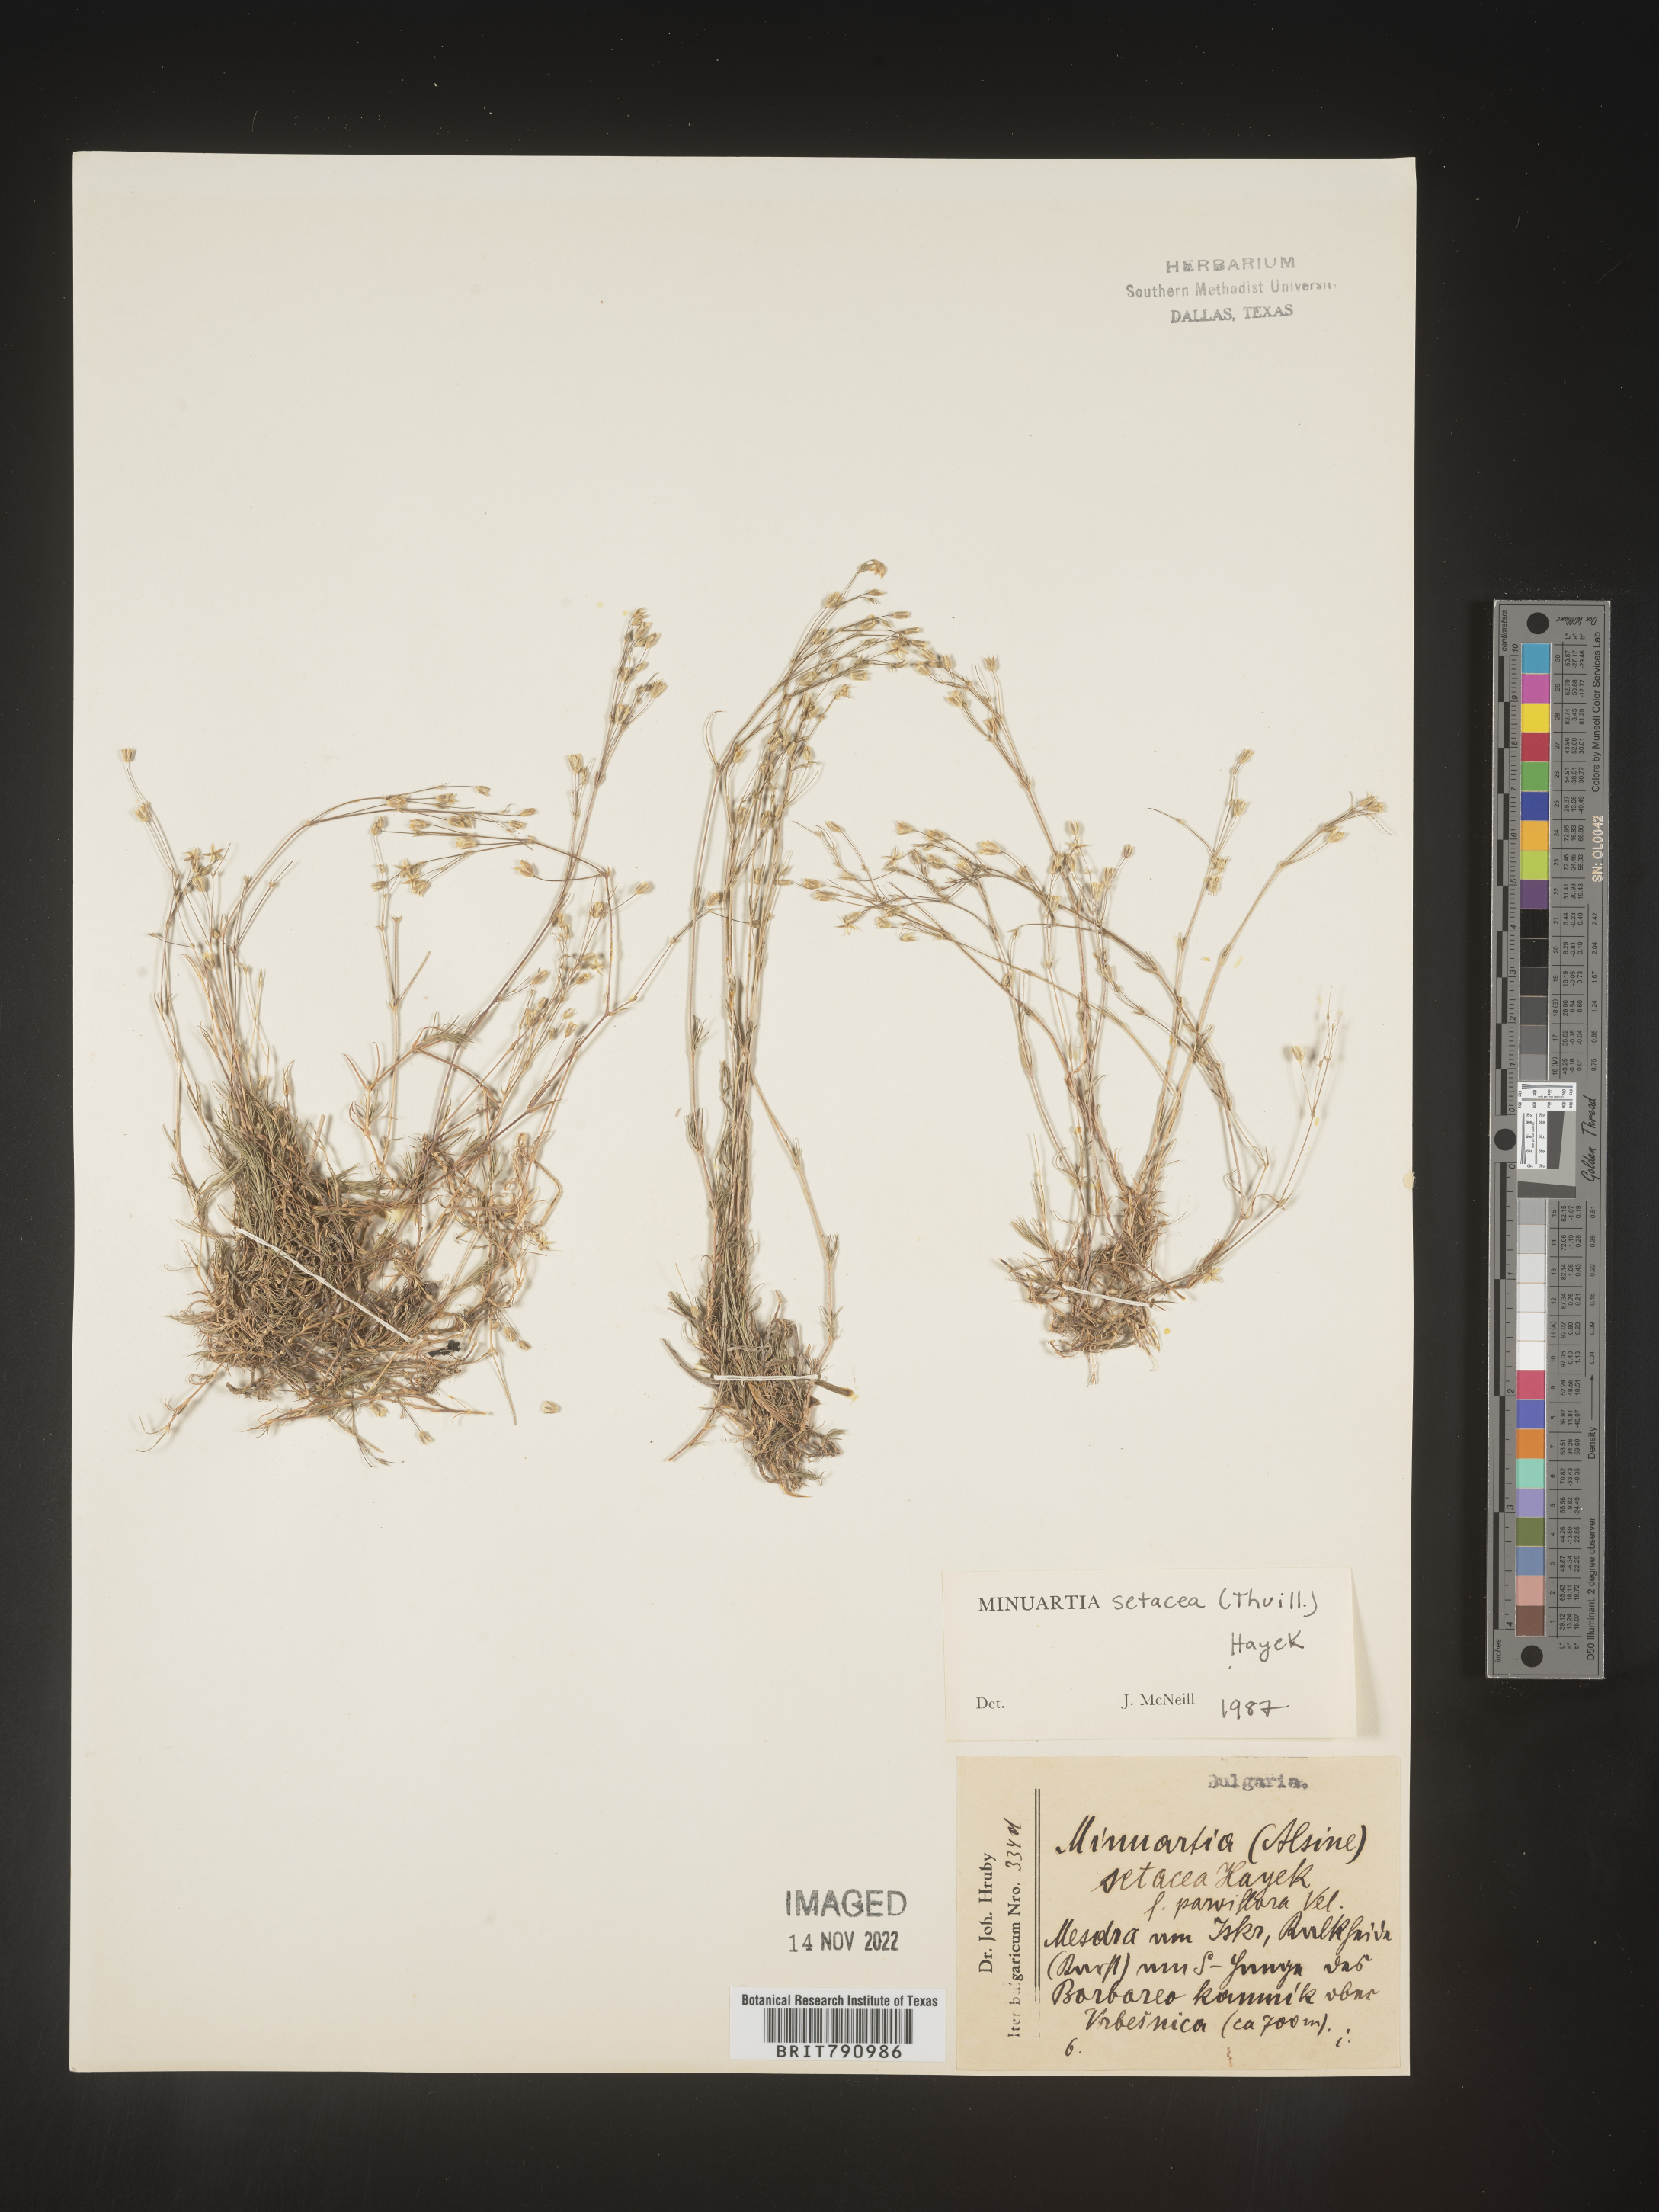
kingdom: Plantae
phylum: Tracheophyta
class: Magnoliopsida
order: Caryophyllales
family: Caryophyllaceae
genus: Minuartia
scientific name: Minuartia
